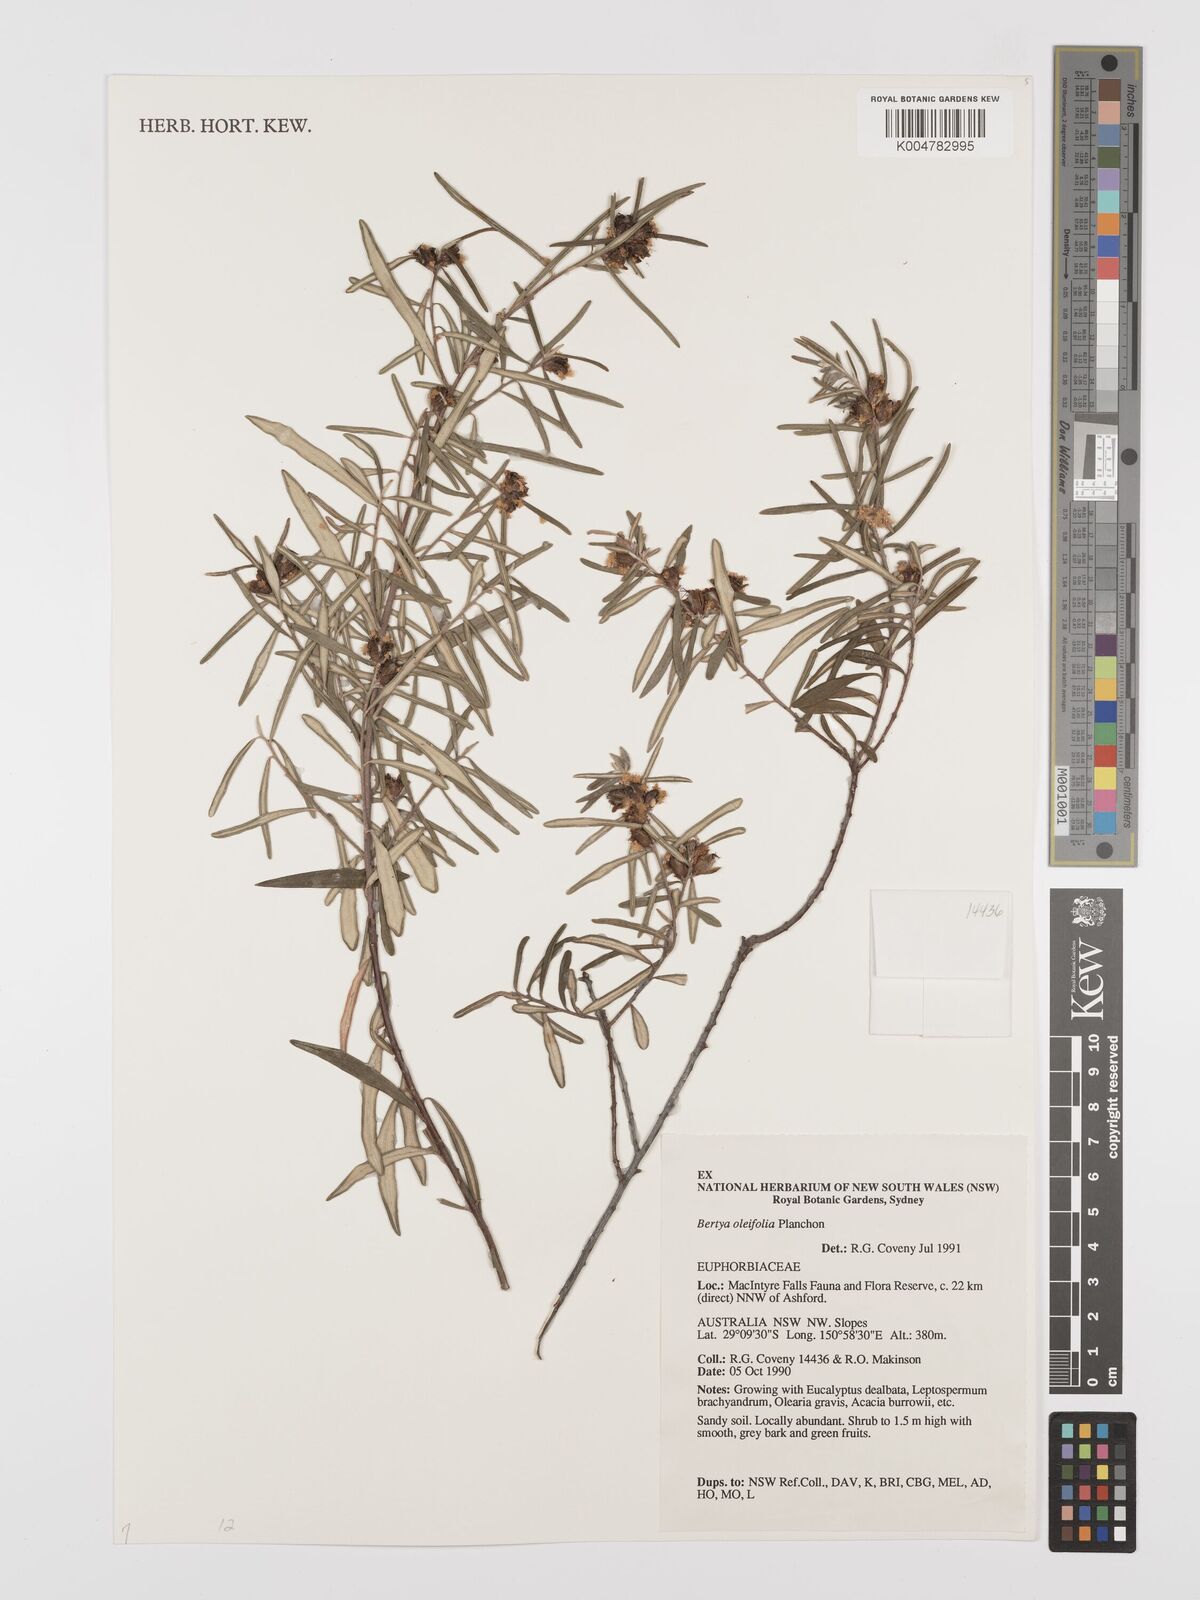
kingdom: Plantae
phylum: Tracheophyta
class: Magnoliopsida
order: Malpighiales
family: Euphorbiaceae
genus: Bertya
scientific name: Bertya oleifolia
